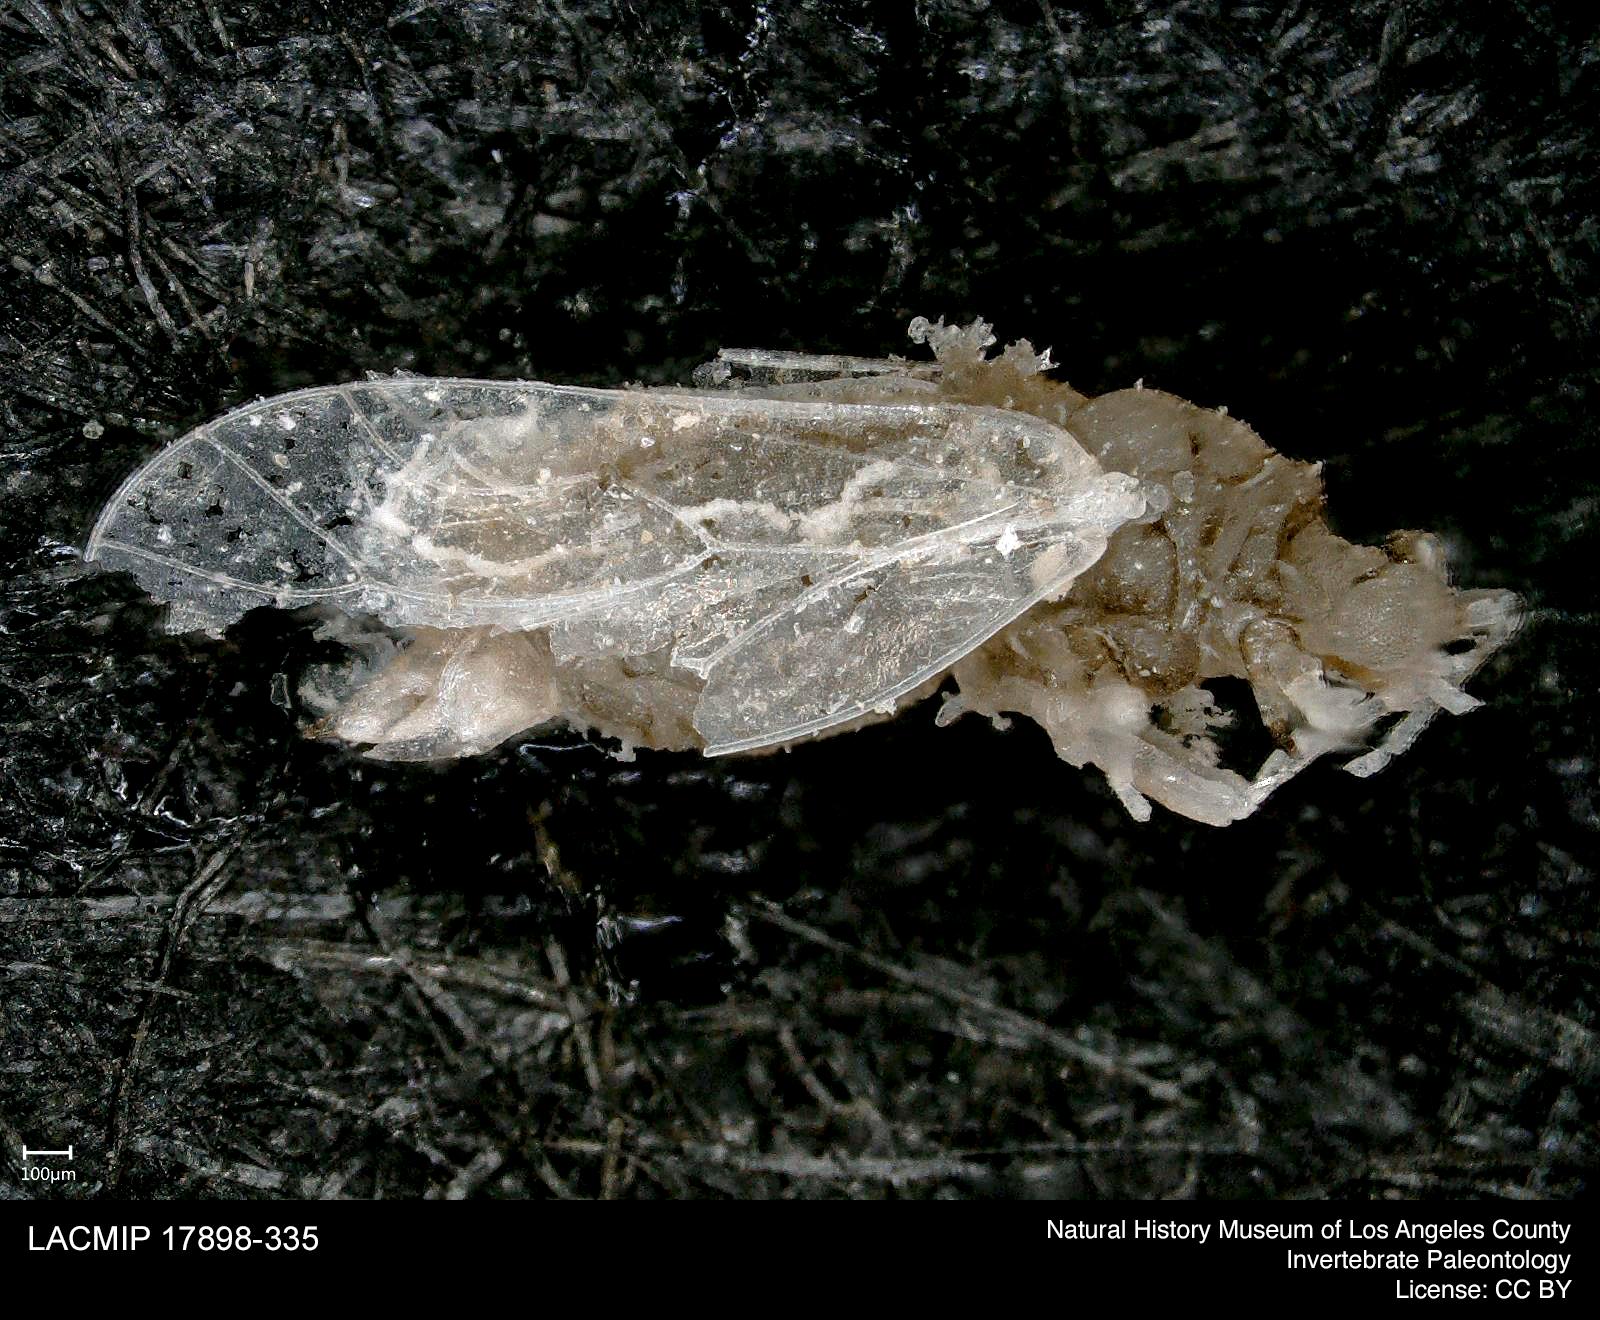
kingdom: Animalia
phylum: Arthropoda
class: Insecta
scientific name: Insecta
